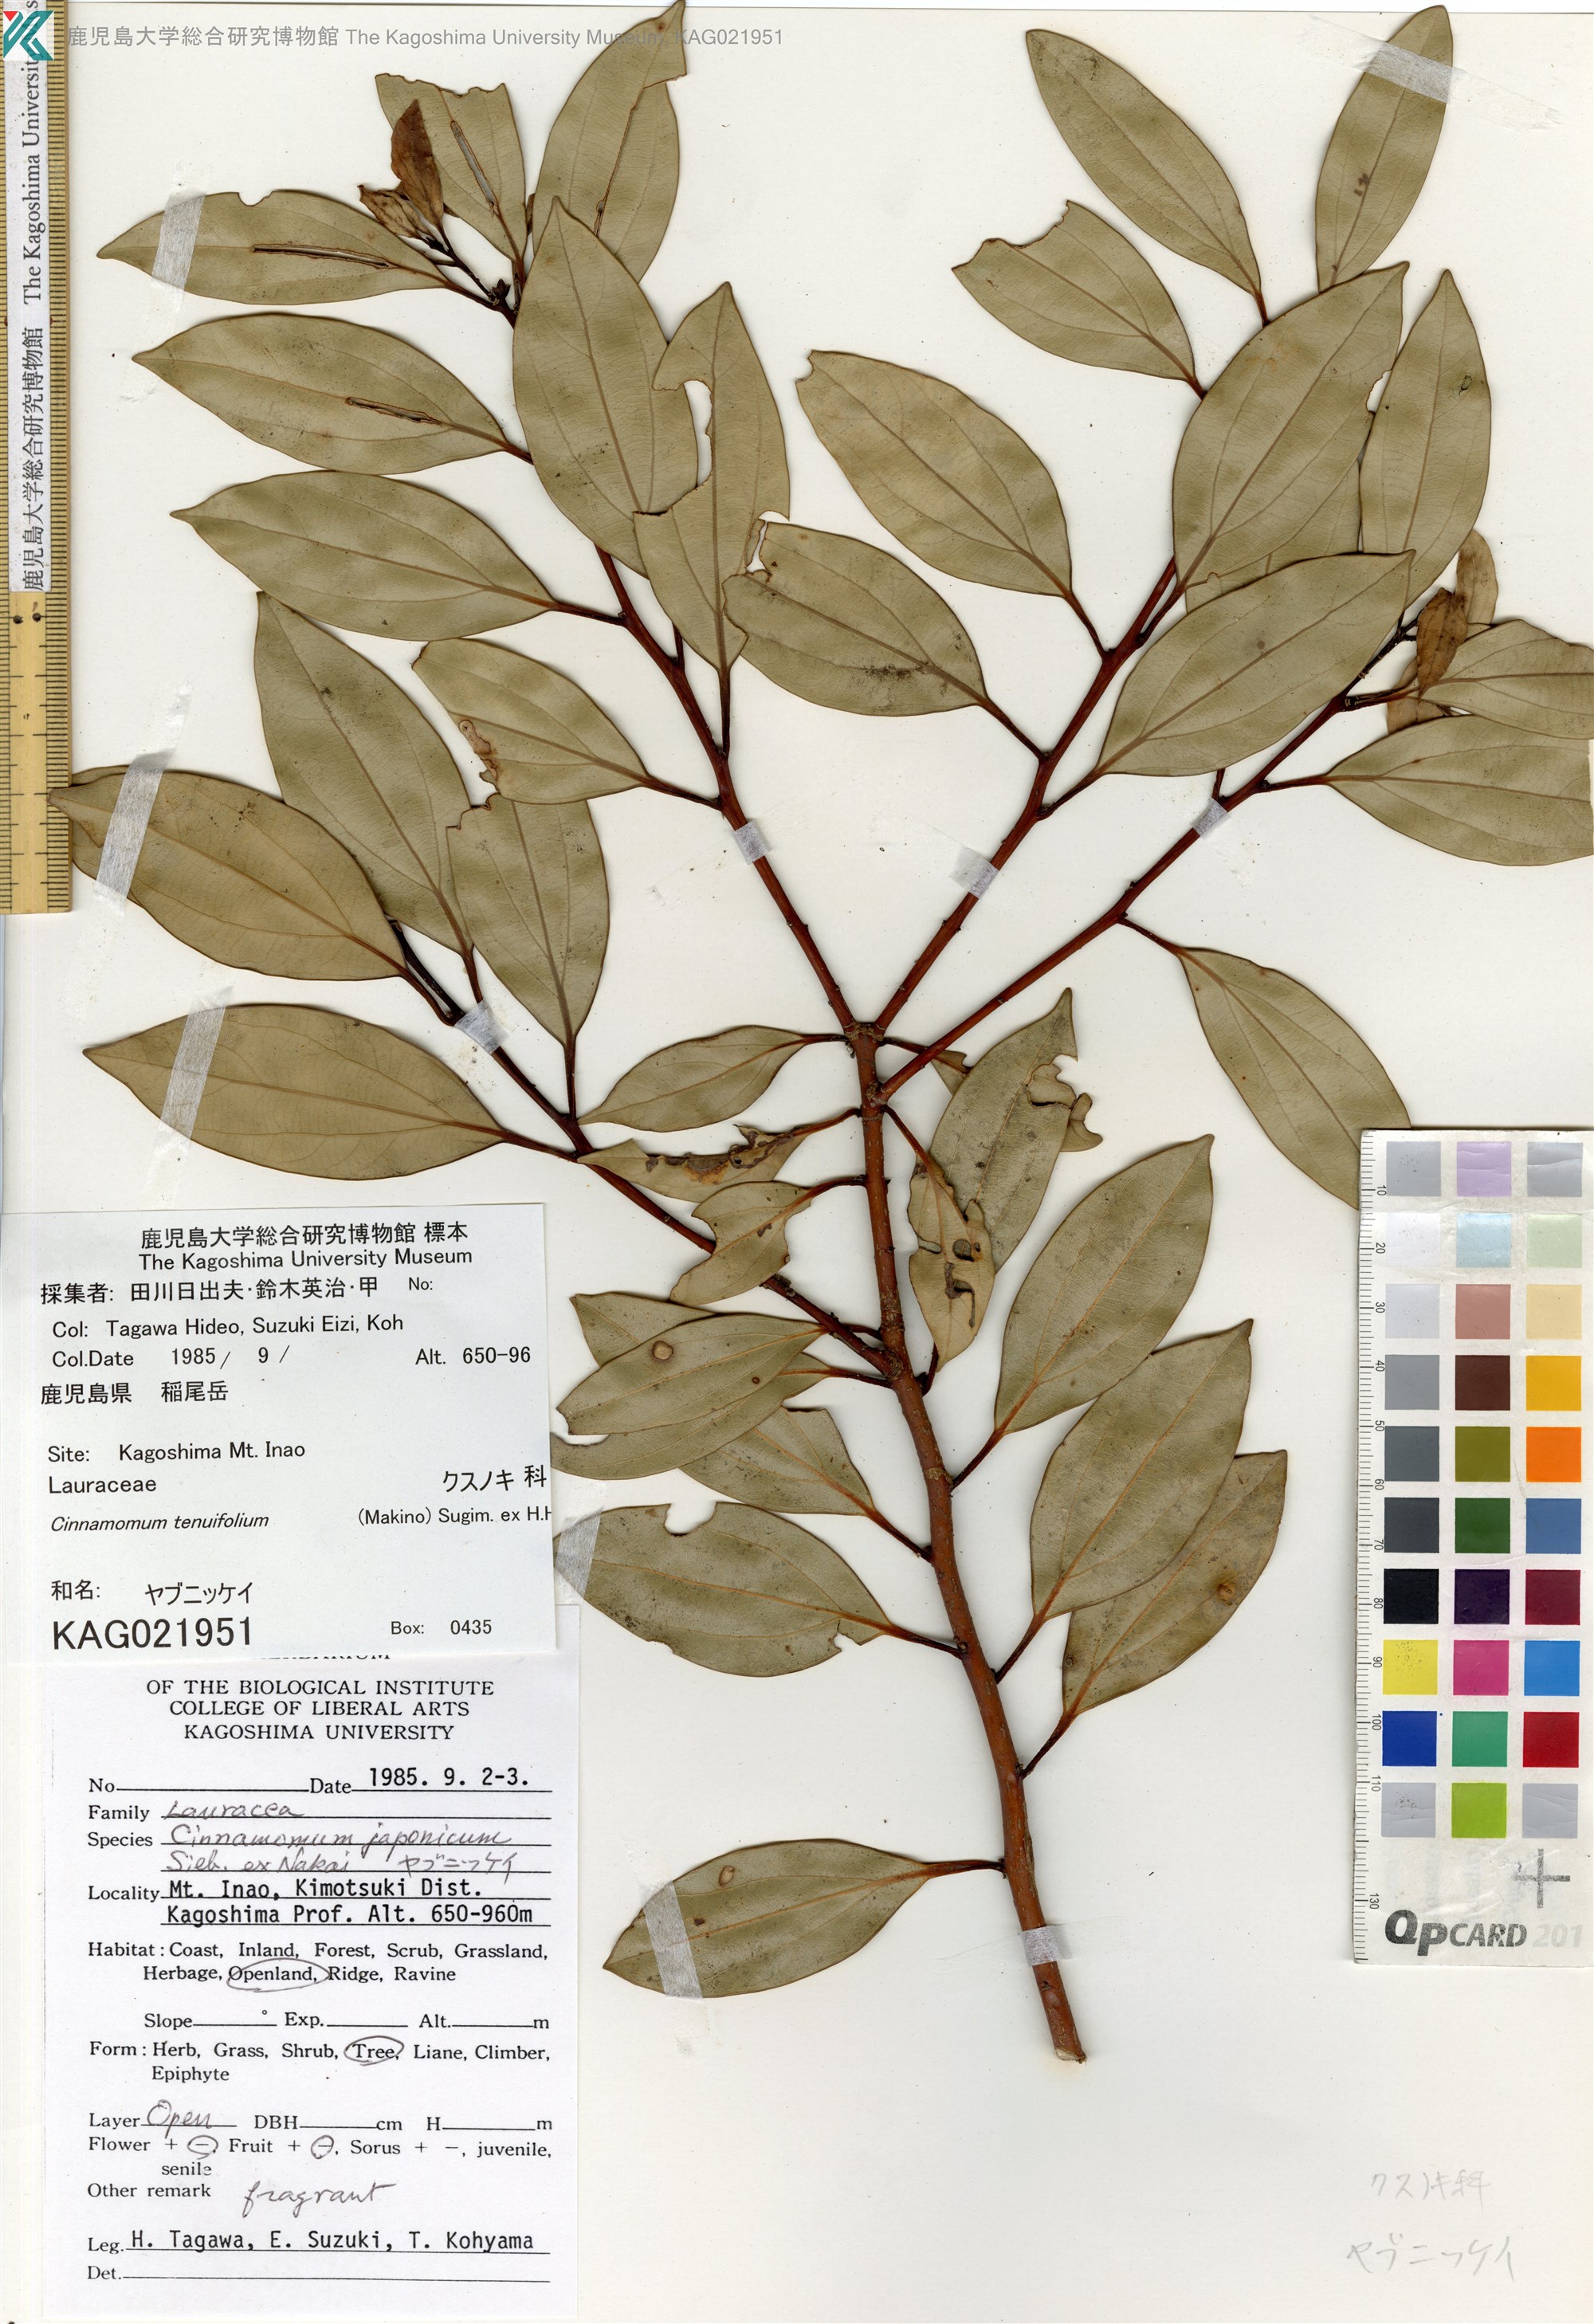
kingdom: Plantae
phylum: Tracheophyta
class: Magnoliopsida
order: Laurales
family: Lauraceae
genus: Cinnamomum
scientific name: Cinnamomum chekiangense
